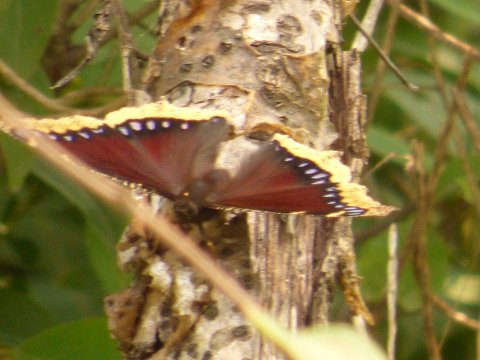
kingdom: Animalia
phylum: Arthropoda
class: Insecta
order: Lepidoptera
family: Nymphalidae
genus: Nymphalis
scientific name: Nymphalis antiopa
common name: Mourning Cloak
